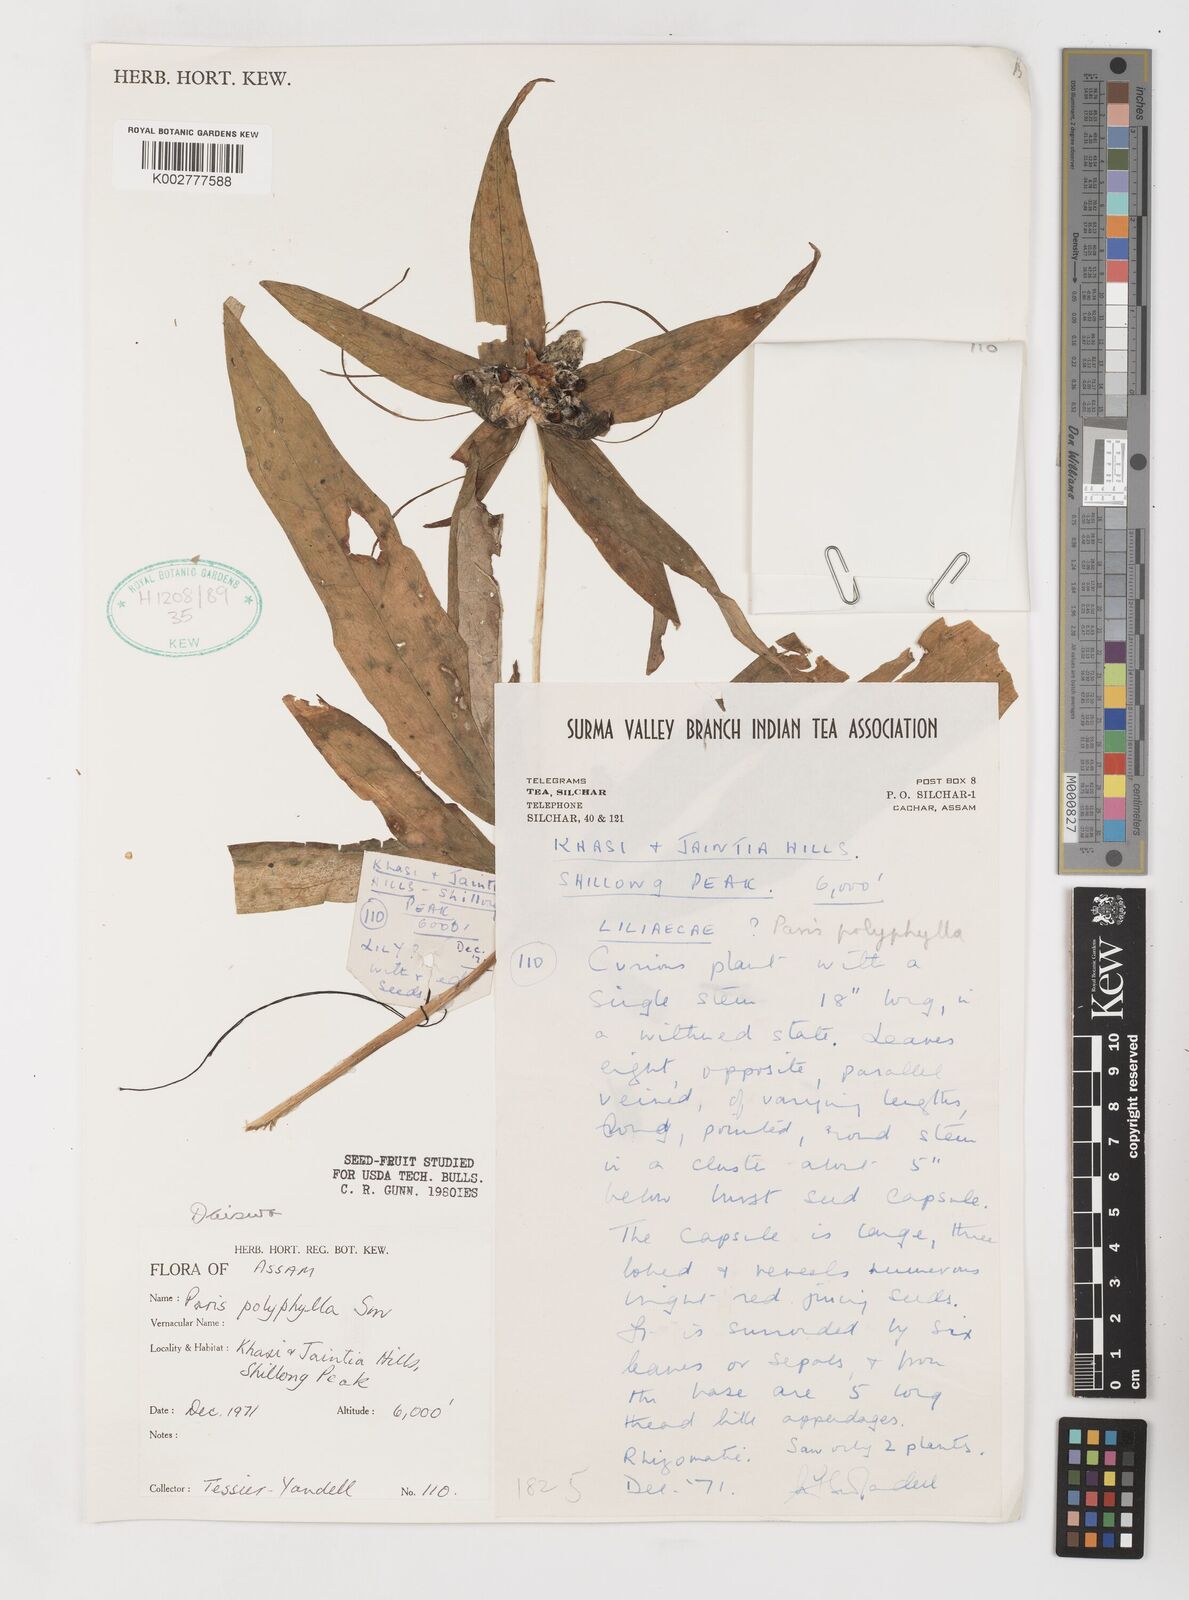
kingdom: Plantae
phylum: Tracheophyta
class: Liliopsida
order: Liliales
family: Melanthiaceae
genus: Paris
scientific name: Paris polyphylla
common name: Love apple
